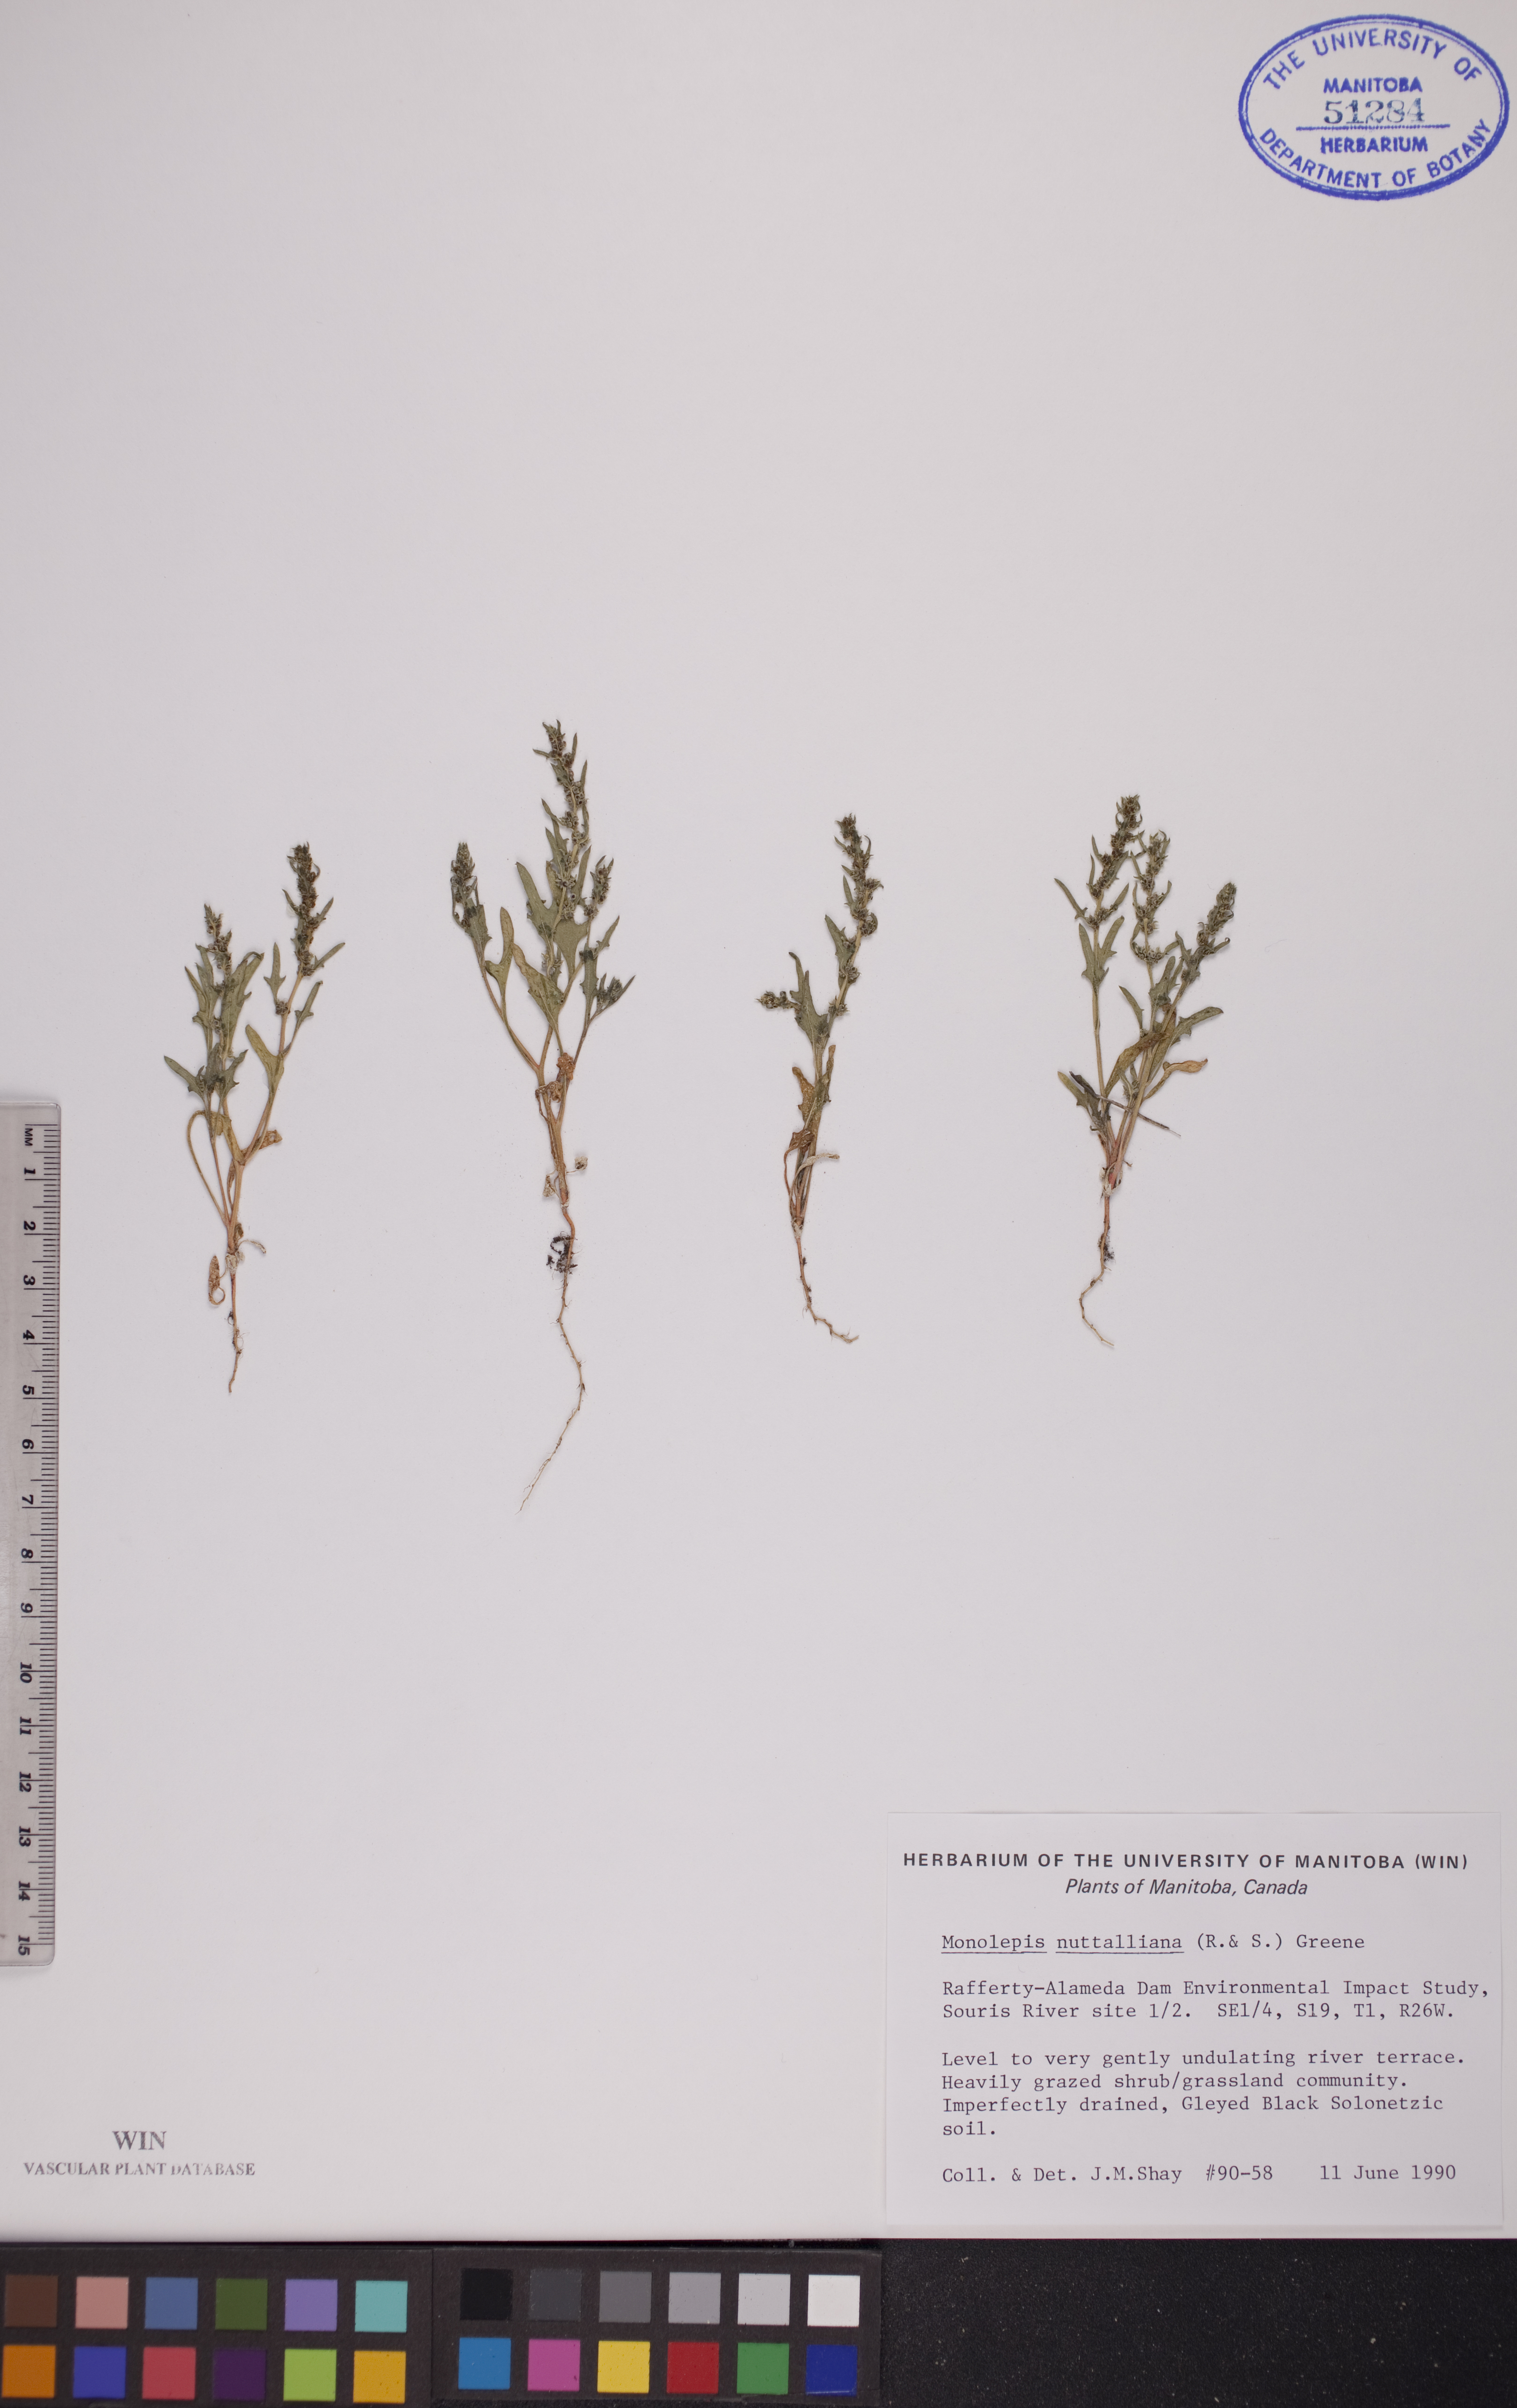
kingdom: Plantae
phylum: Tracheophyta
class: Magnoliopsida
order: Caryophyllales
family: Amaranthaceae
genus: Blitum
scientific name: Blitum nuttallianum
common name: Poverty-weed
